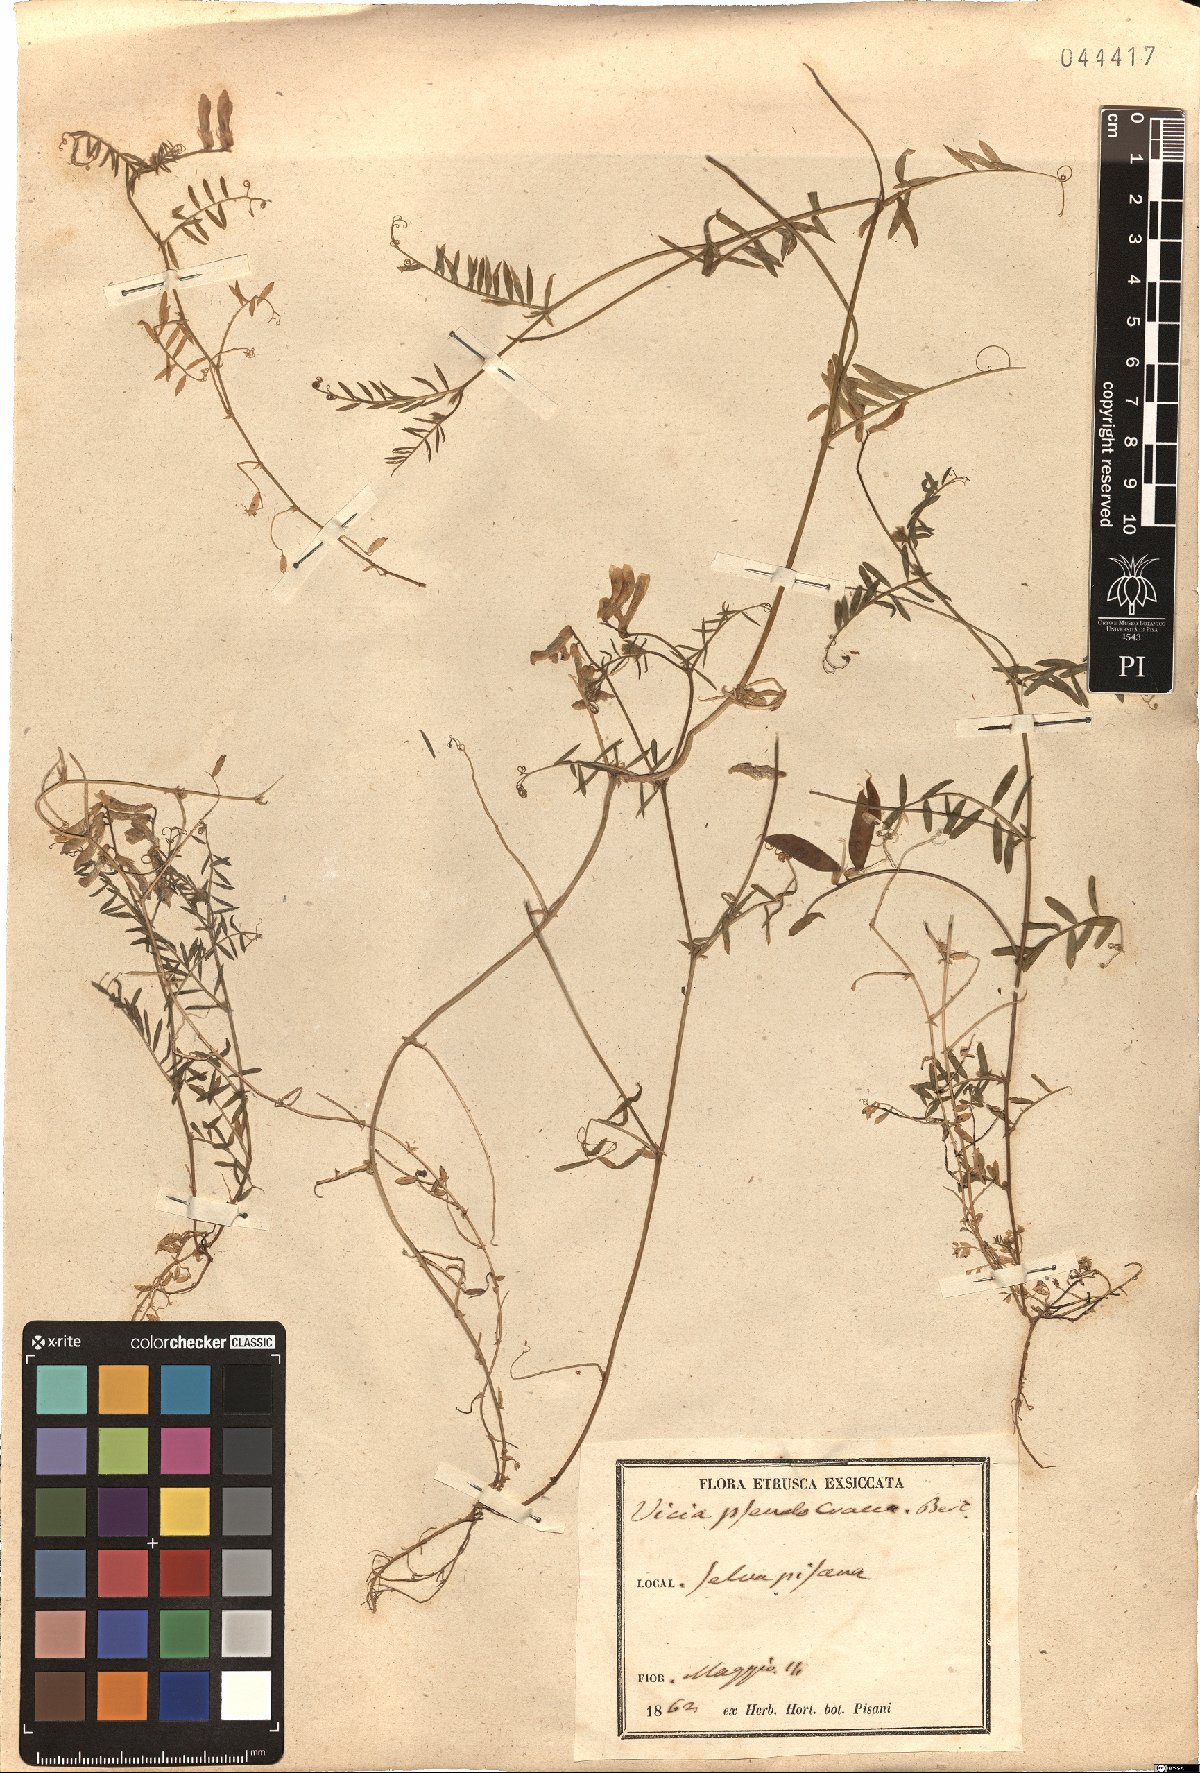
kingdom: Plantae
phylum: Tracheophyta
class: Magnoliopsida
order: Fabales
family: Fabaceae
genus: Vicia
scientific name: Vicia villosa
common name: Fodder vetch
